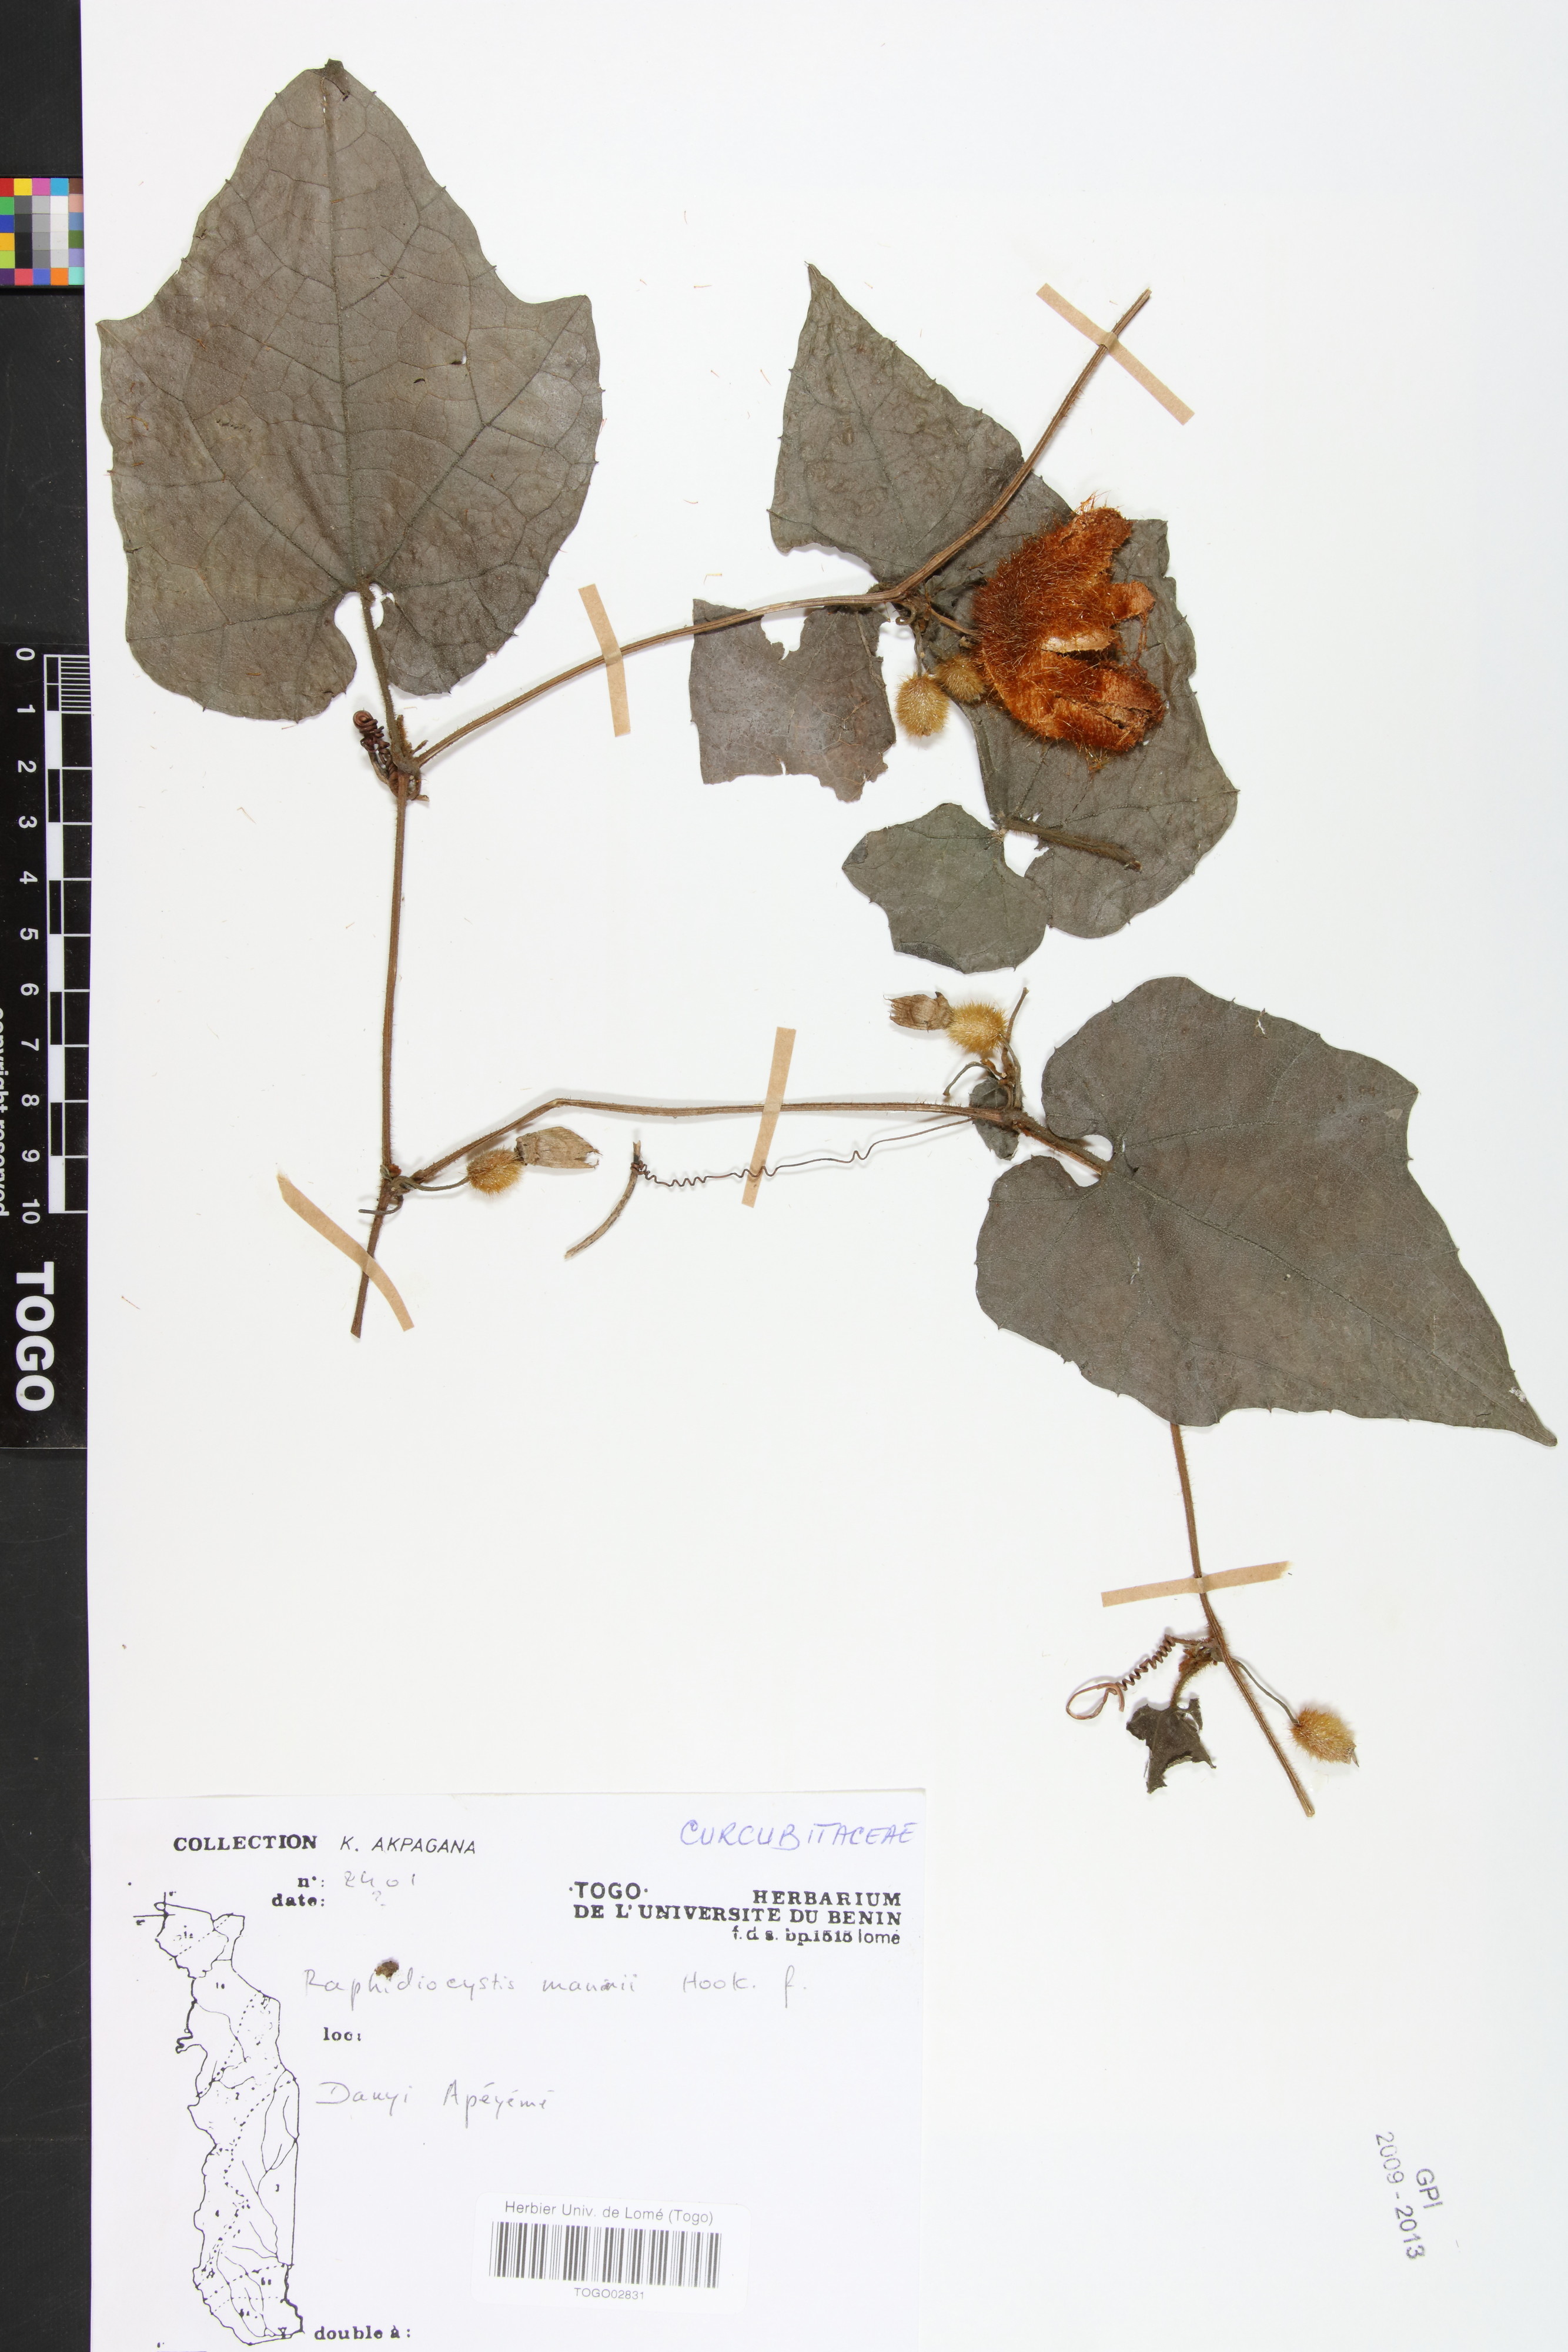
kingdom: Plantae
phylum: Tracheophyta
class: Magnoliopsida
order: Cucurbitales
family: Cucurbitaceae
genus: Raphidiocystis
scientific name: Raphidiocystis mannii
